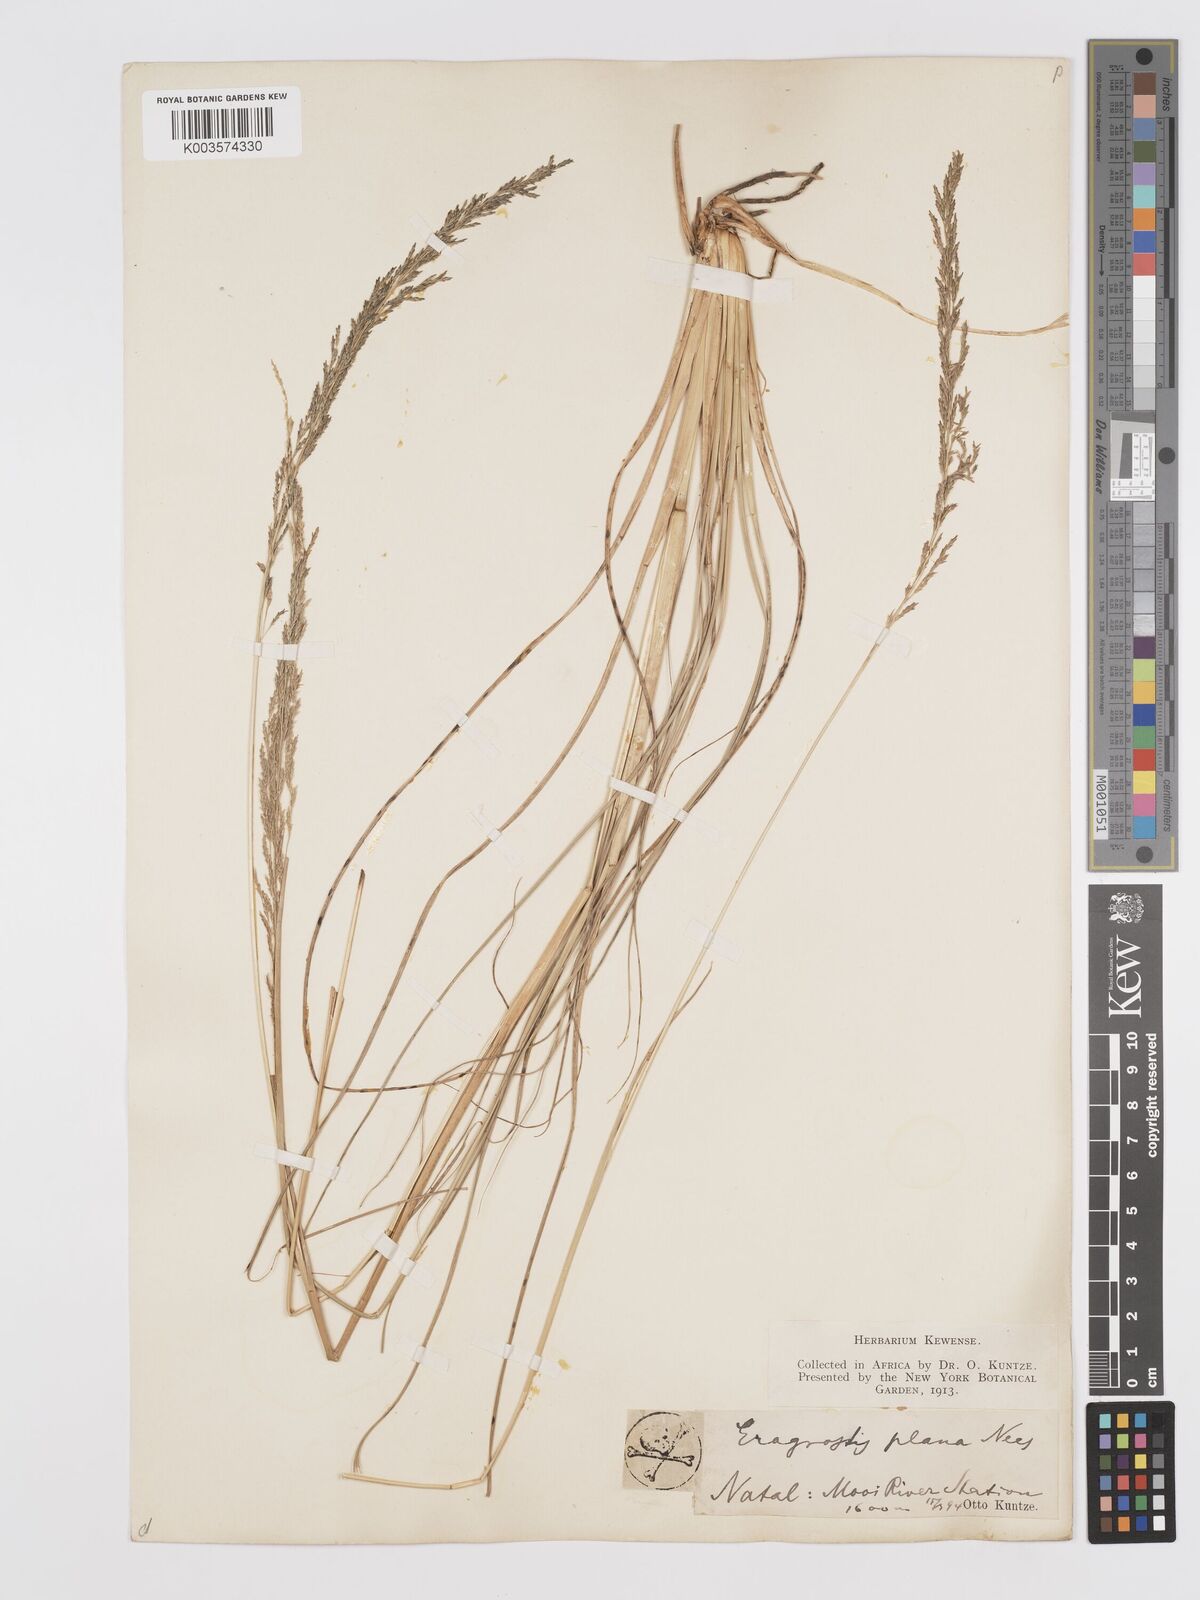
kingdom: Plantae
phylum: Tracheophyta
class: Liliopsida
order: Poales
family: Poaceae
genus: Eragrostis
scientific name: Eragrostis plana
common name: South african lovegrass
